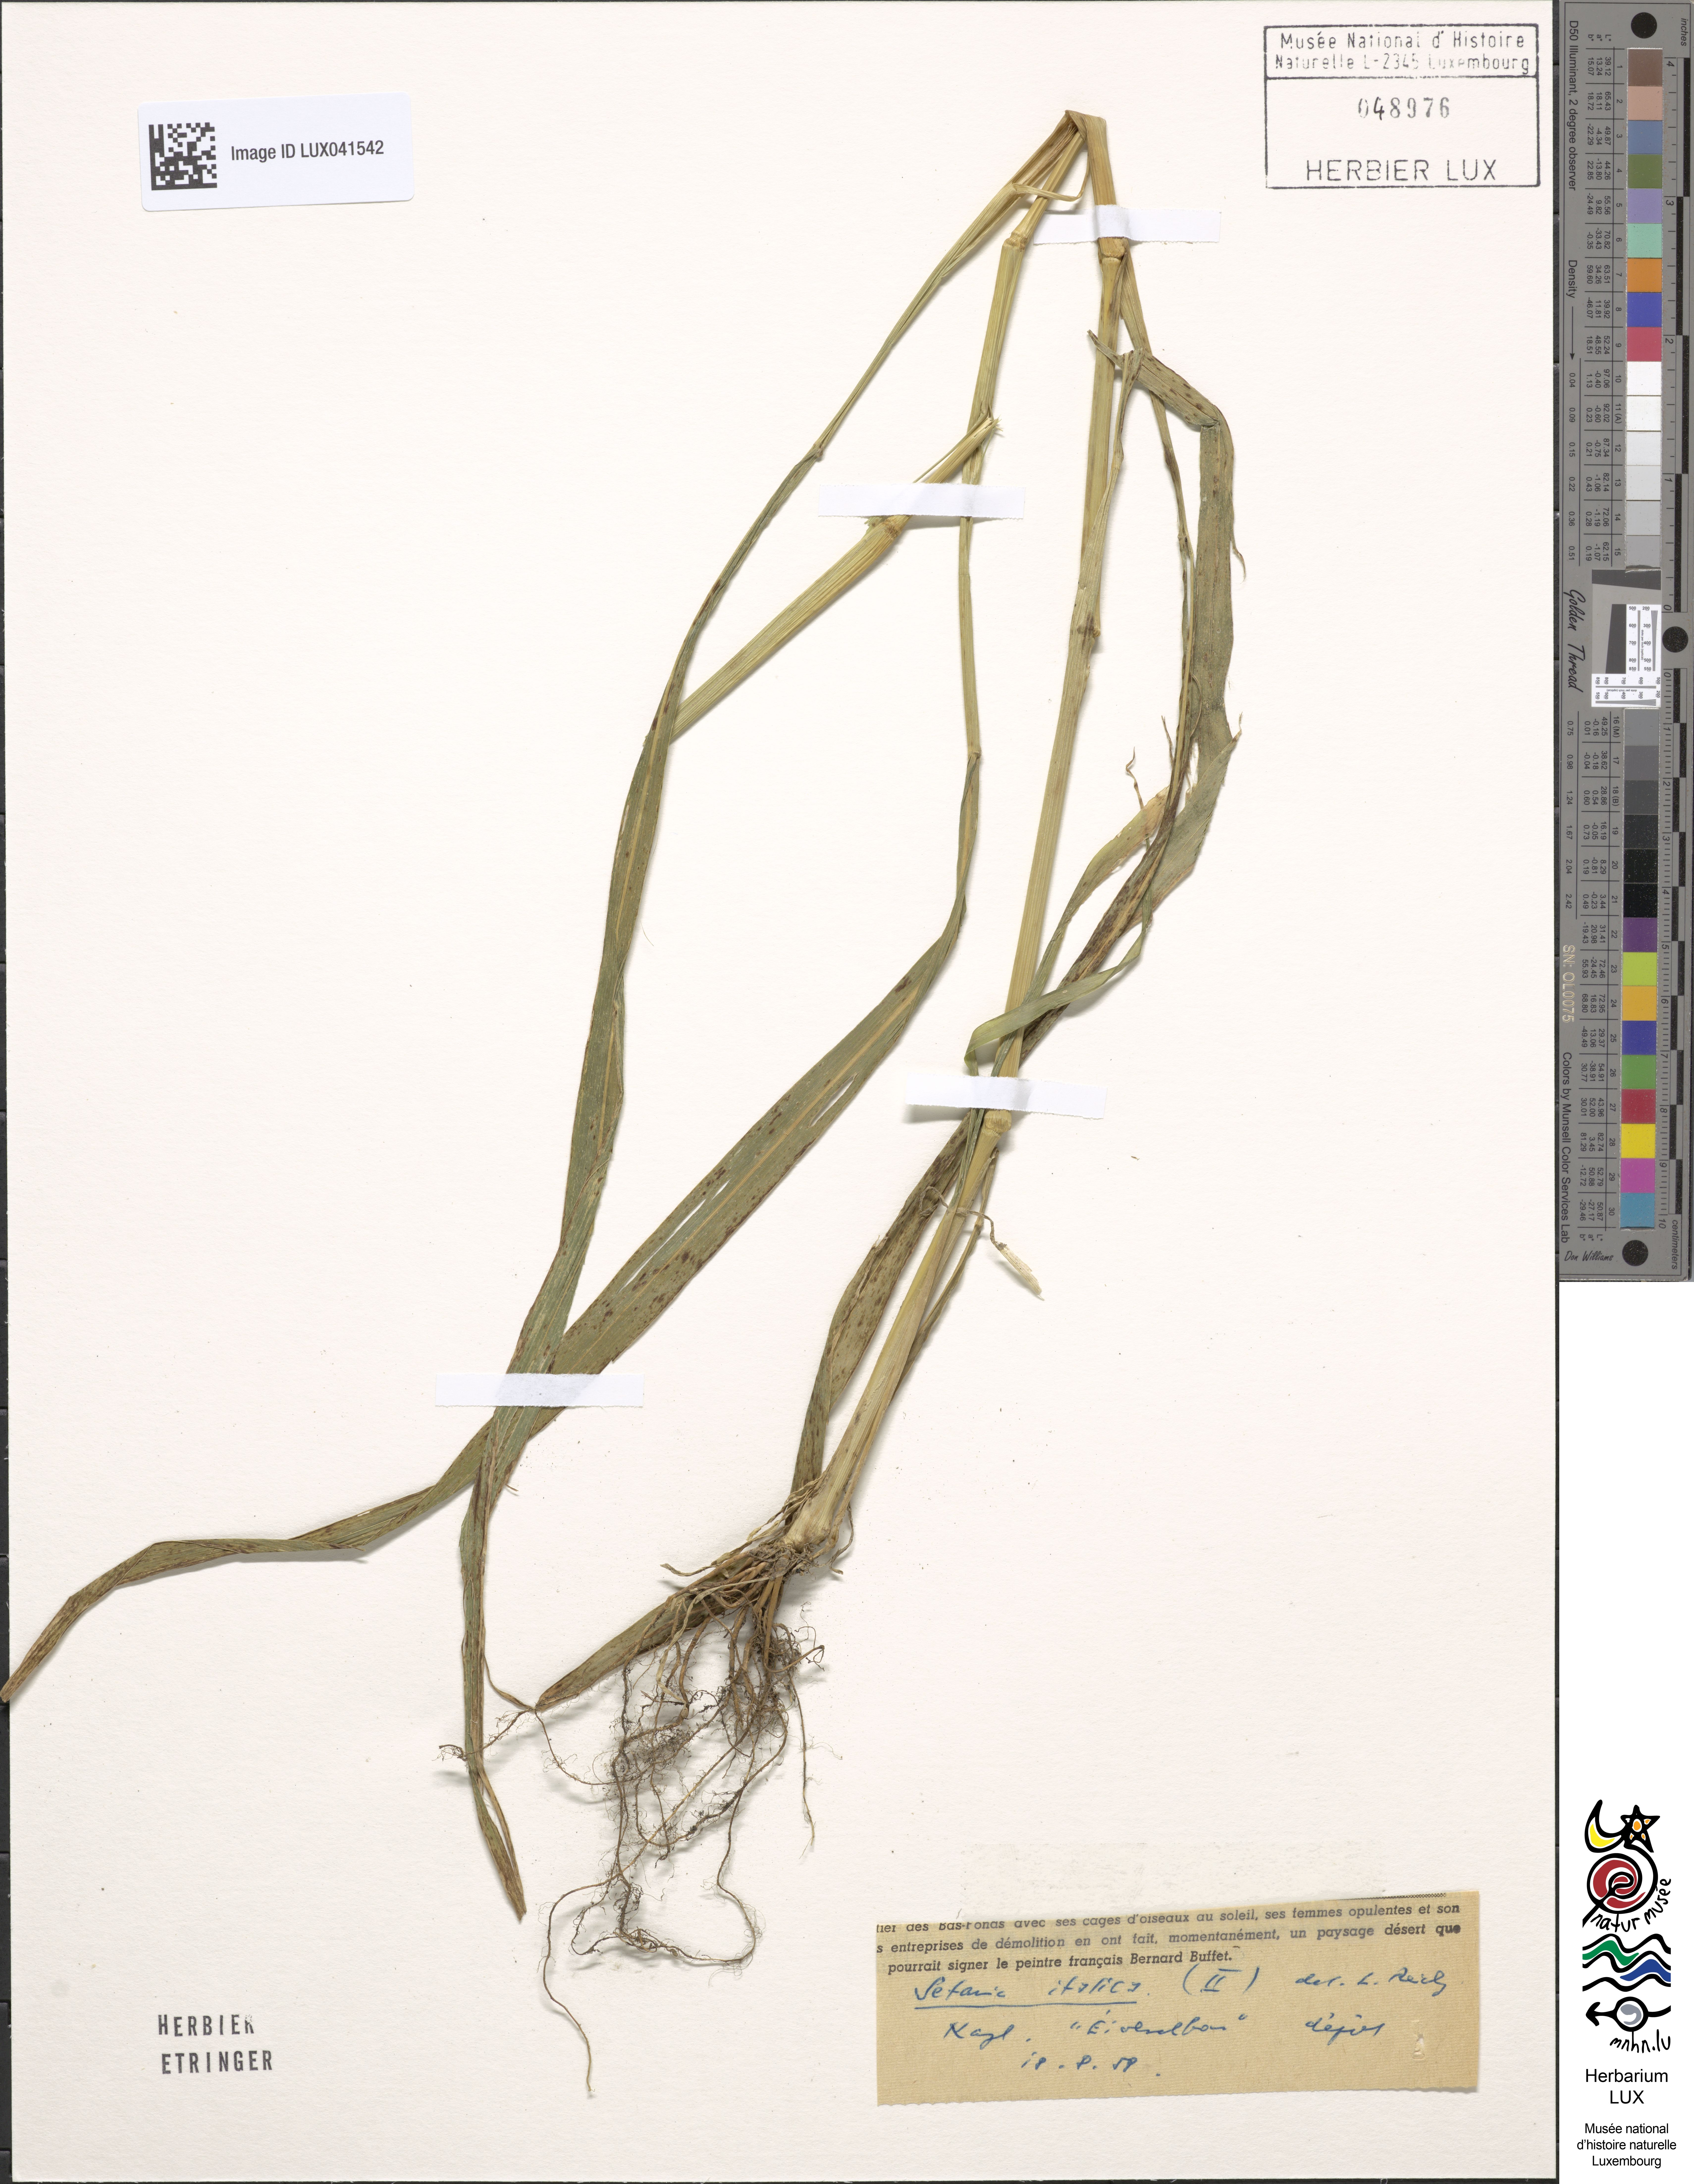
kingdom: Plantae
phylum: Tracheophyta
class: Liliopsida
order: Poales
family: Poaceae
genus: Setaria
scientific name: Setaria italica
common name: Foxtail bristle-grass
